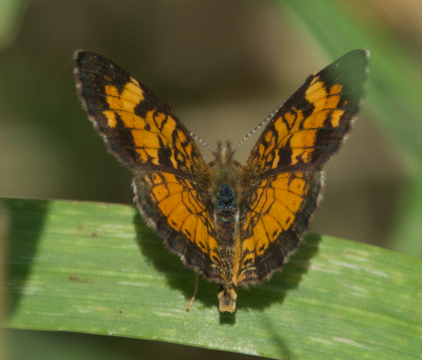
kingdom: Animalia
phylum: Arthropoda
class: Insecta
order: Lepidoptera
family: Nymphalidae
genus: Phyciodes
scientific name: Phyciodes tharos
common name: Northern Crescent
